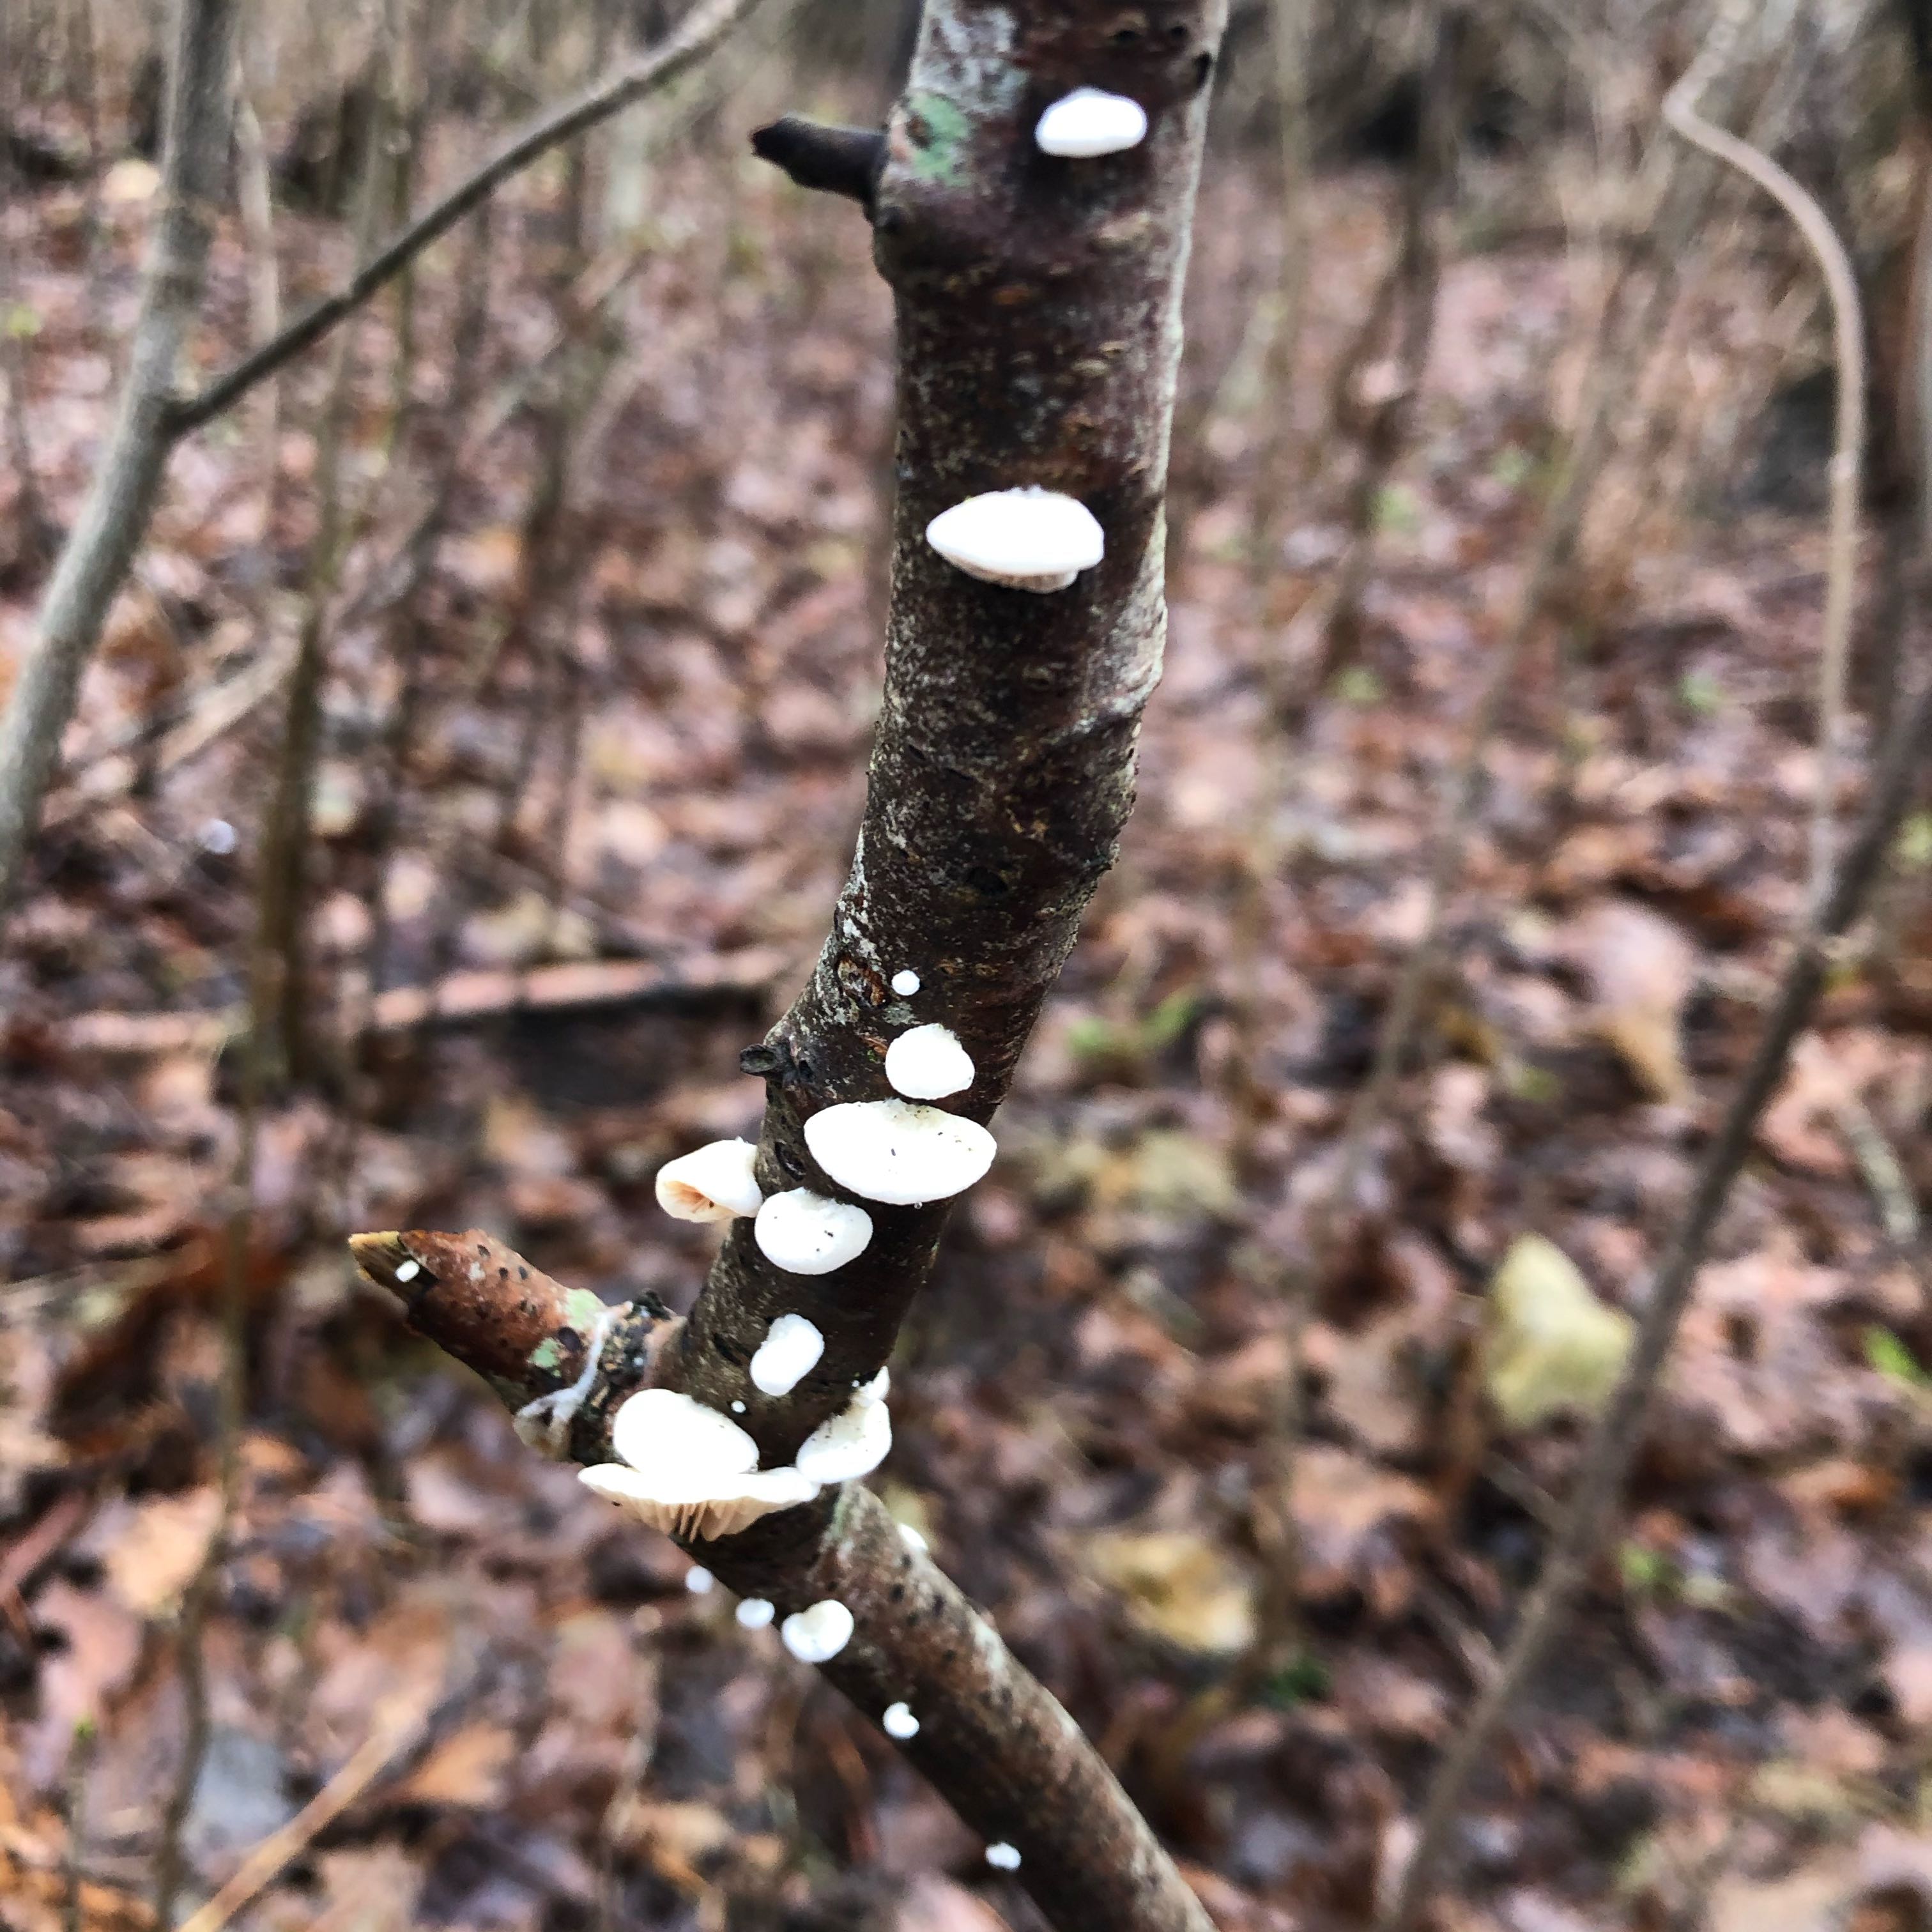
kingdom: Fungi
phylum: Basidiomycota
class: Agaricomycetes
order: Agaricales
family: Crepidotaceae
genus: Crepidotus
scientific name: Crepidotus
